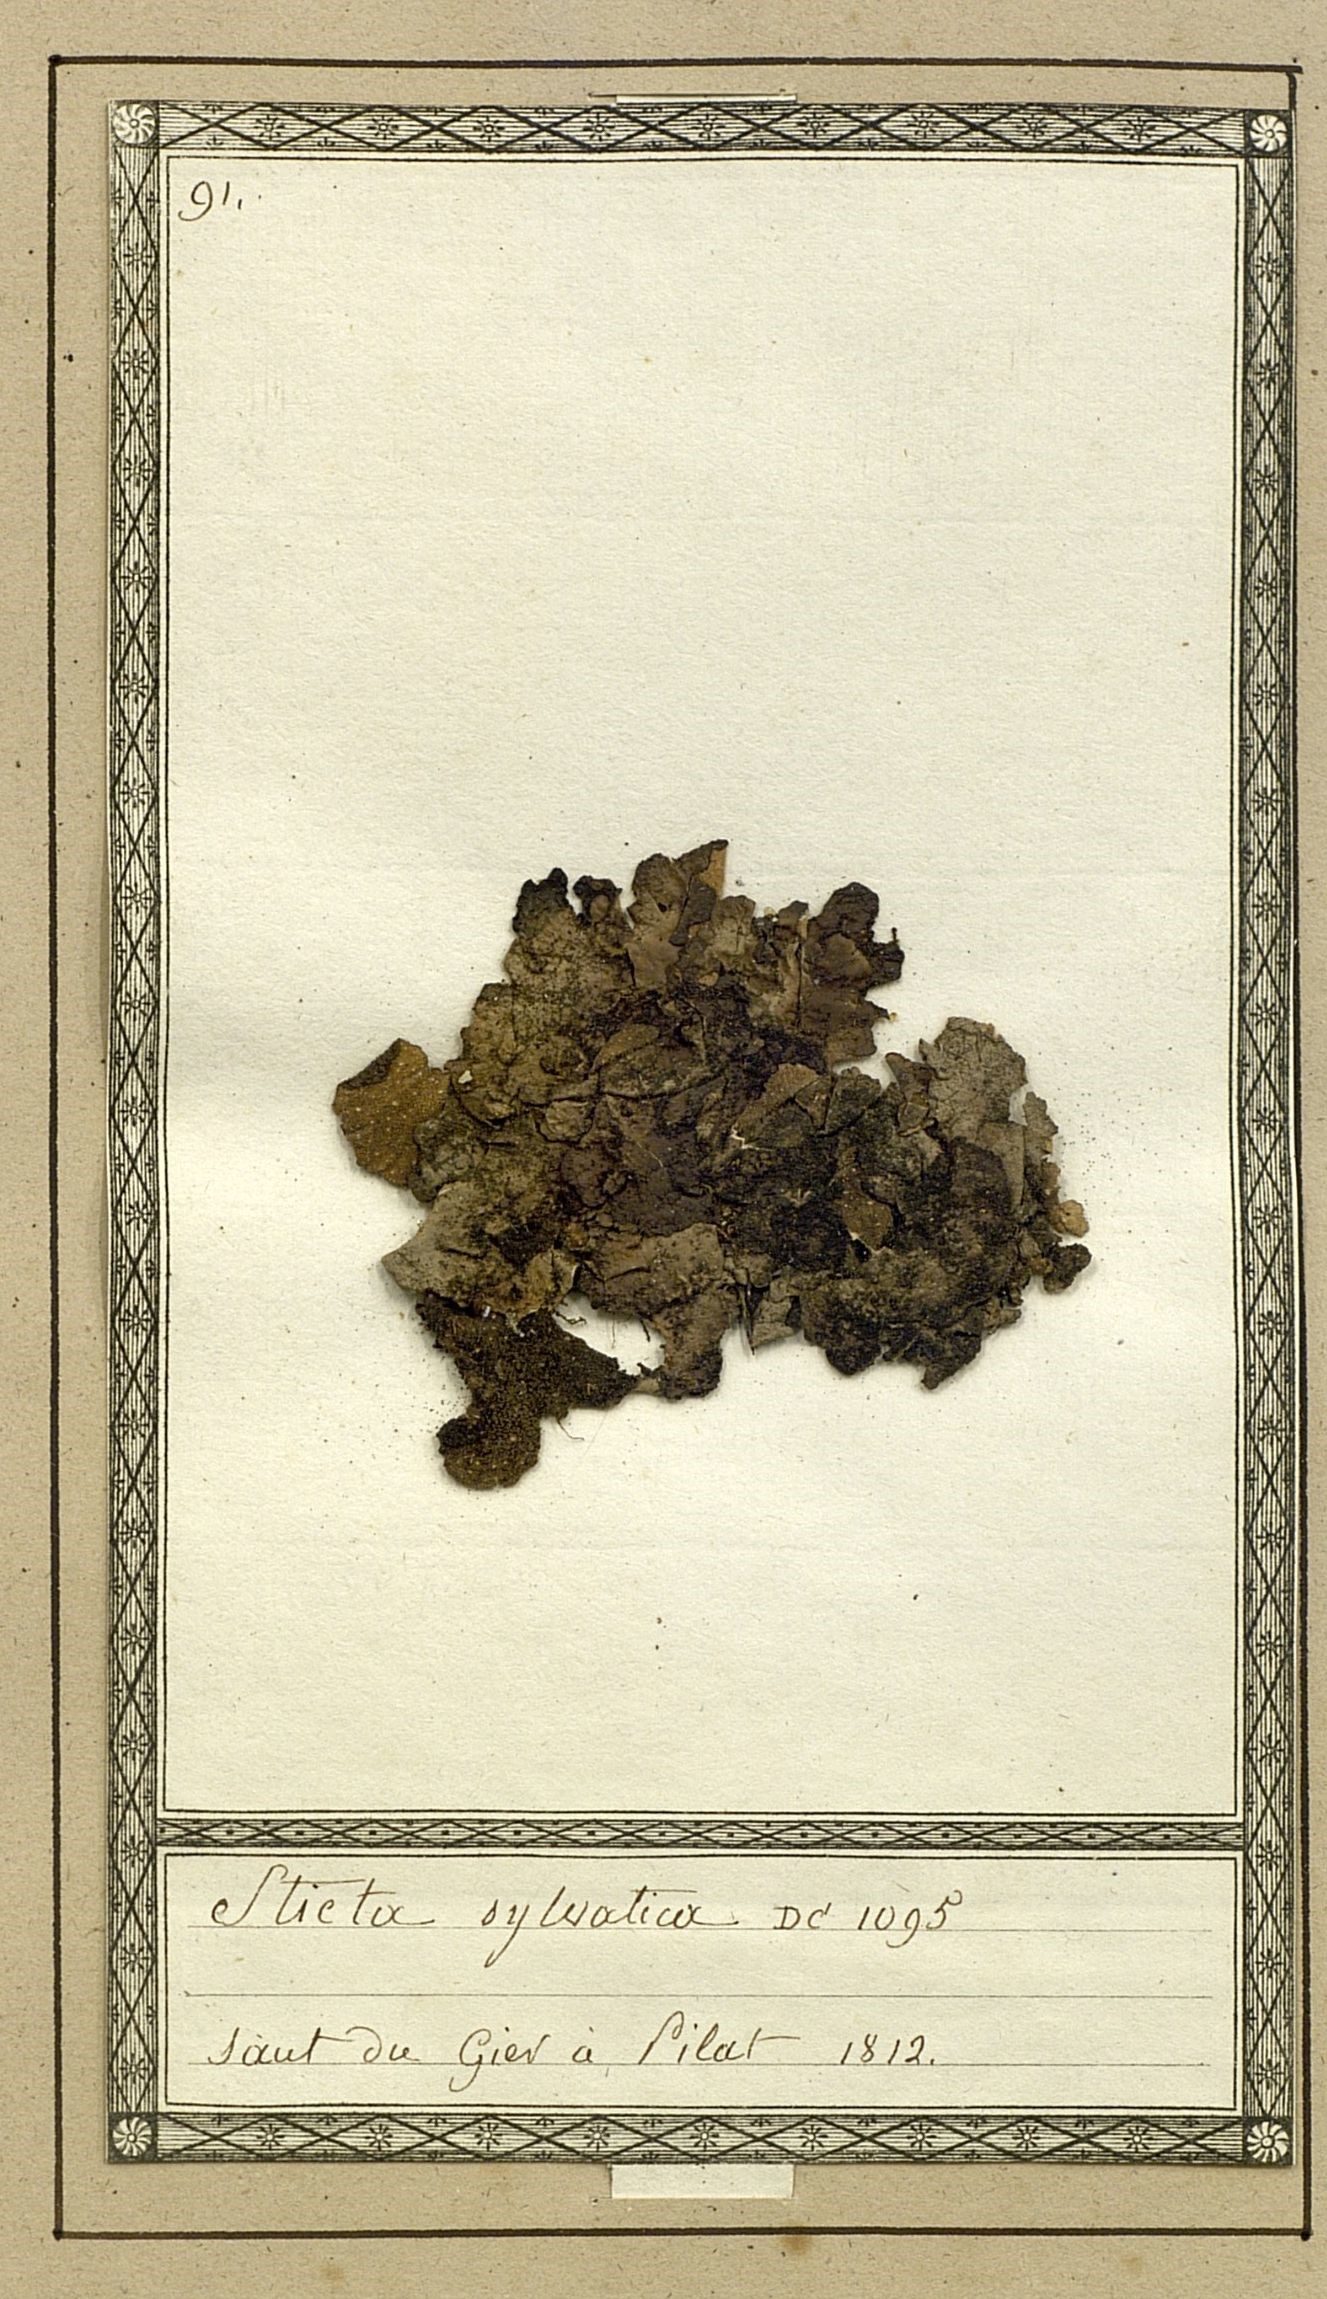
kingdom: Fungi
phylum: Ascomycota
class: Lecanoromycetes
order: Lecanorales
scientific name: Lecanorales
